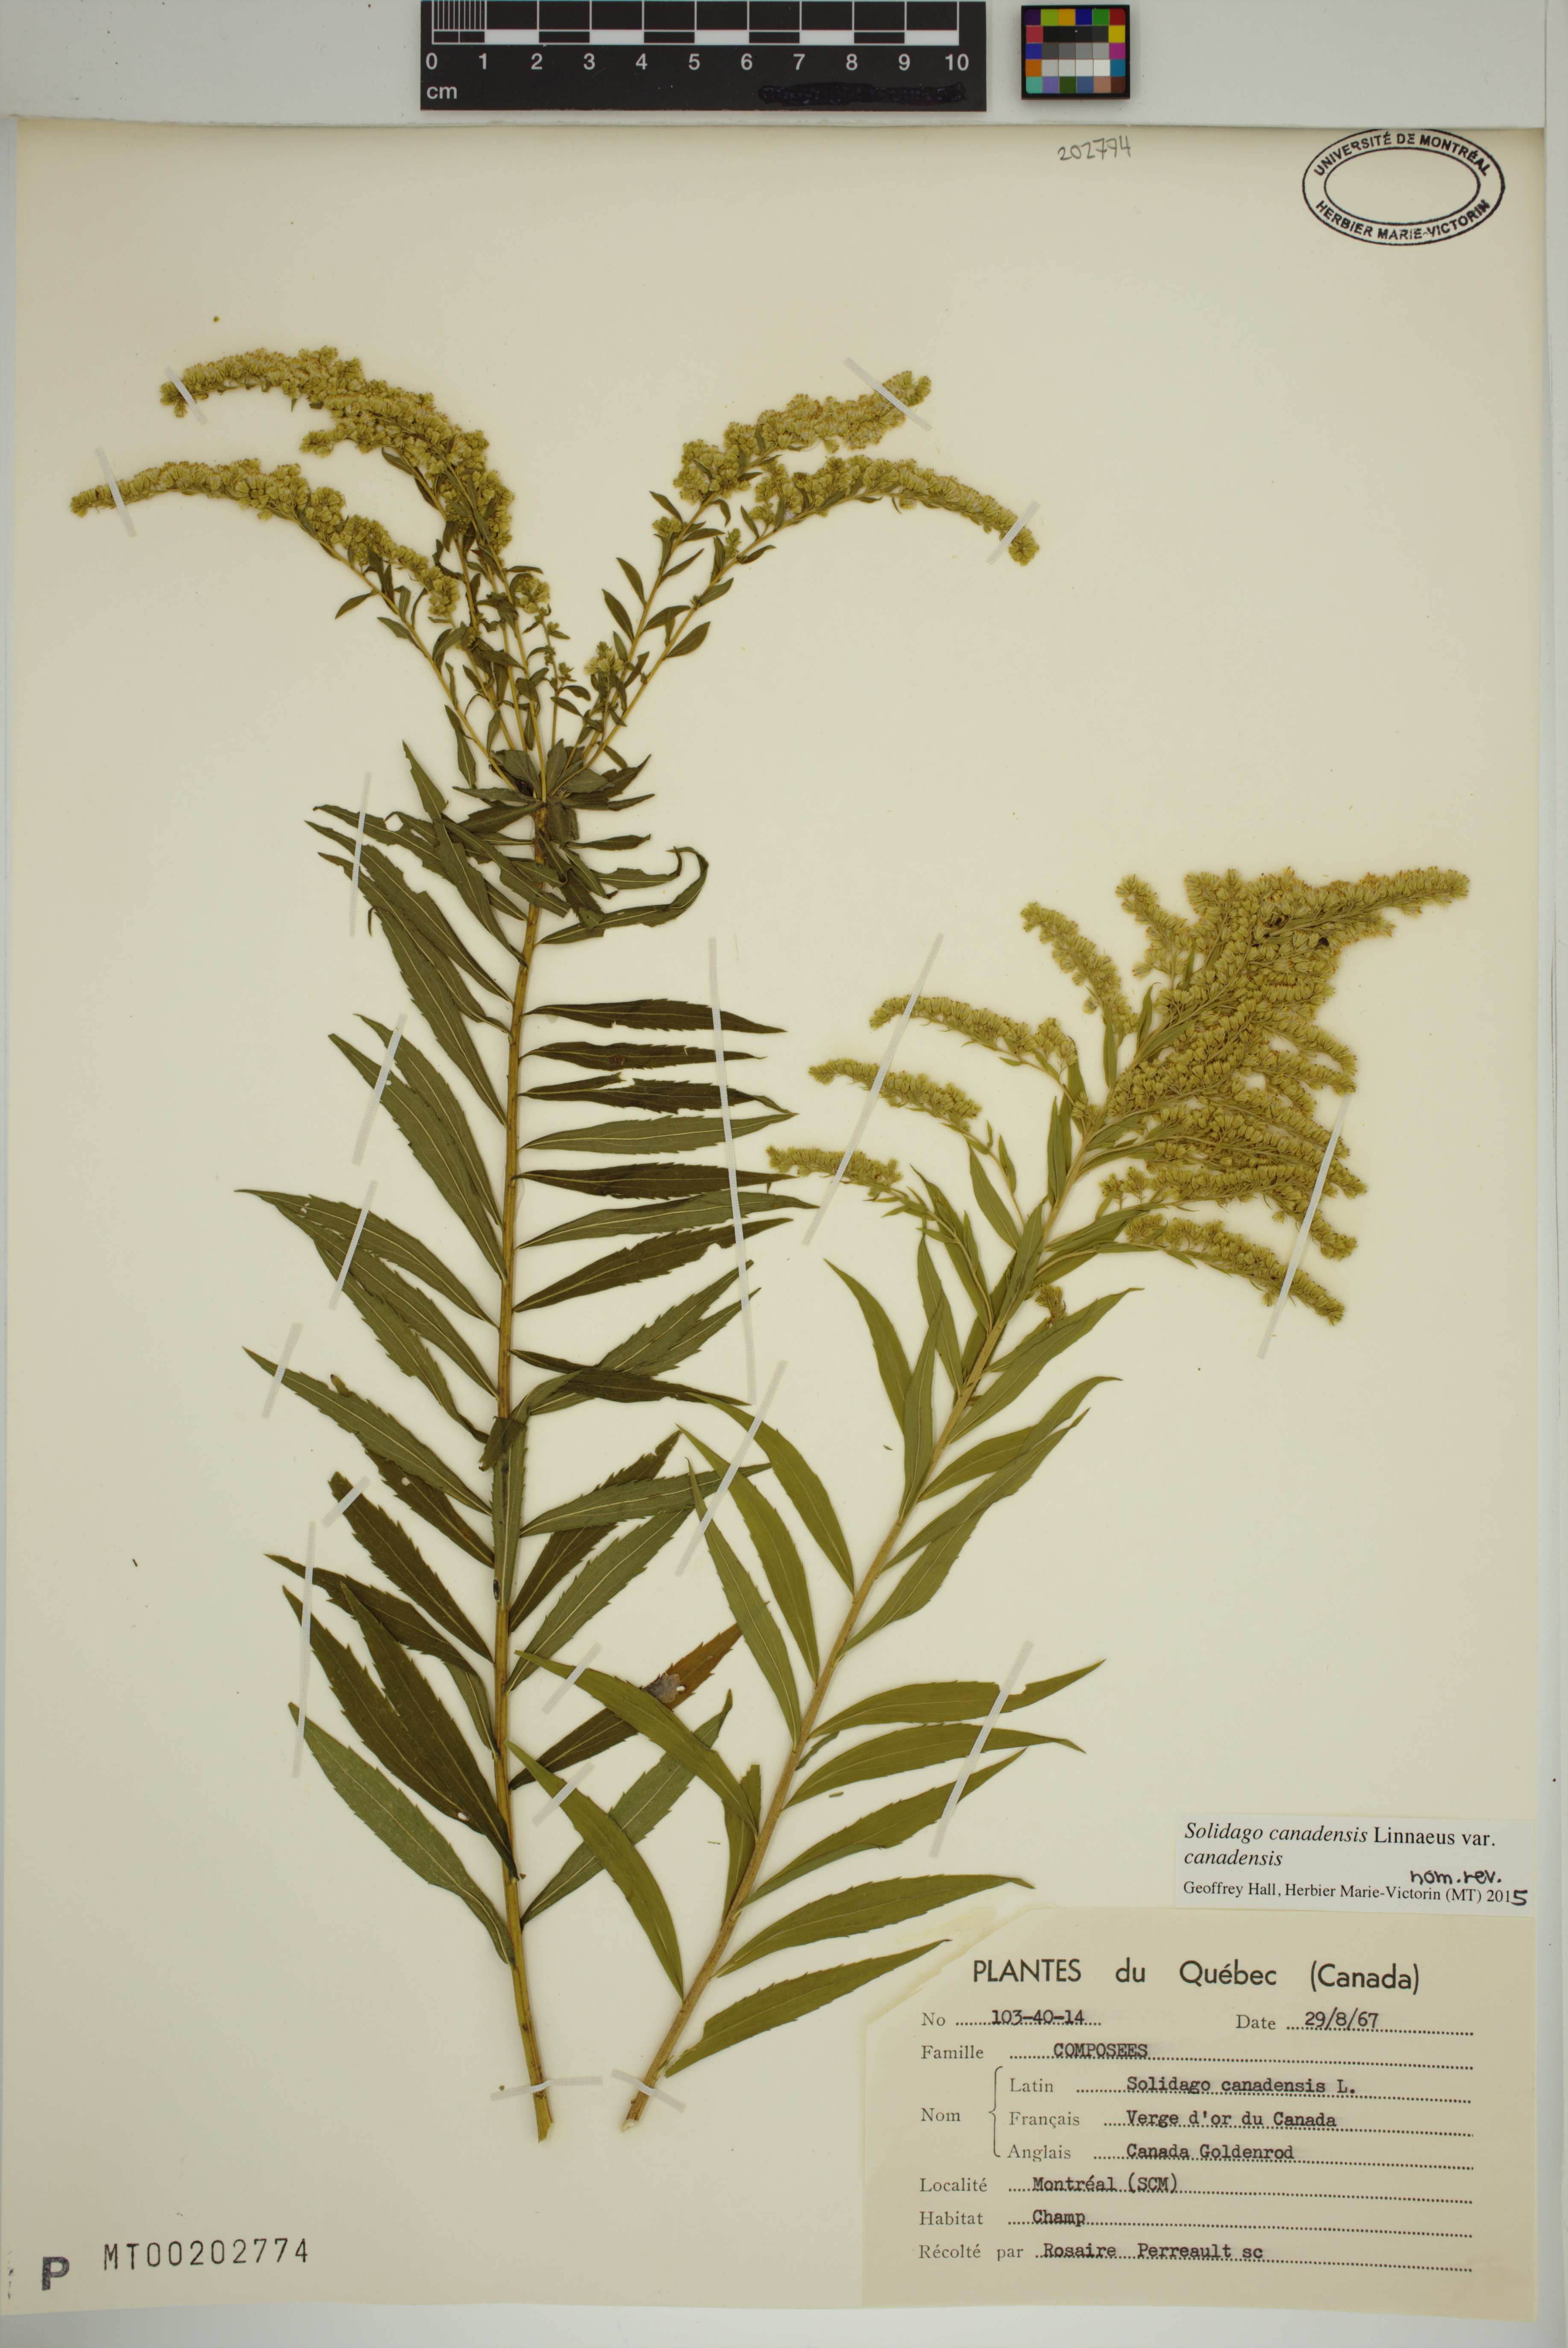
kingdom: Plantae
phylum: Tracheophyta
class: Magnoliopsida
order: Asterales
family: Asteraceae
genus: Solidago
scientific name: Solidago canadensis
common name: Canada goldenrod
